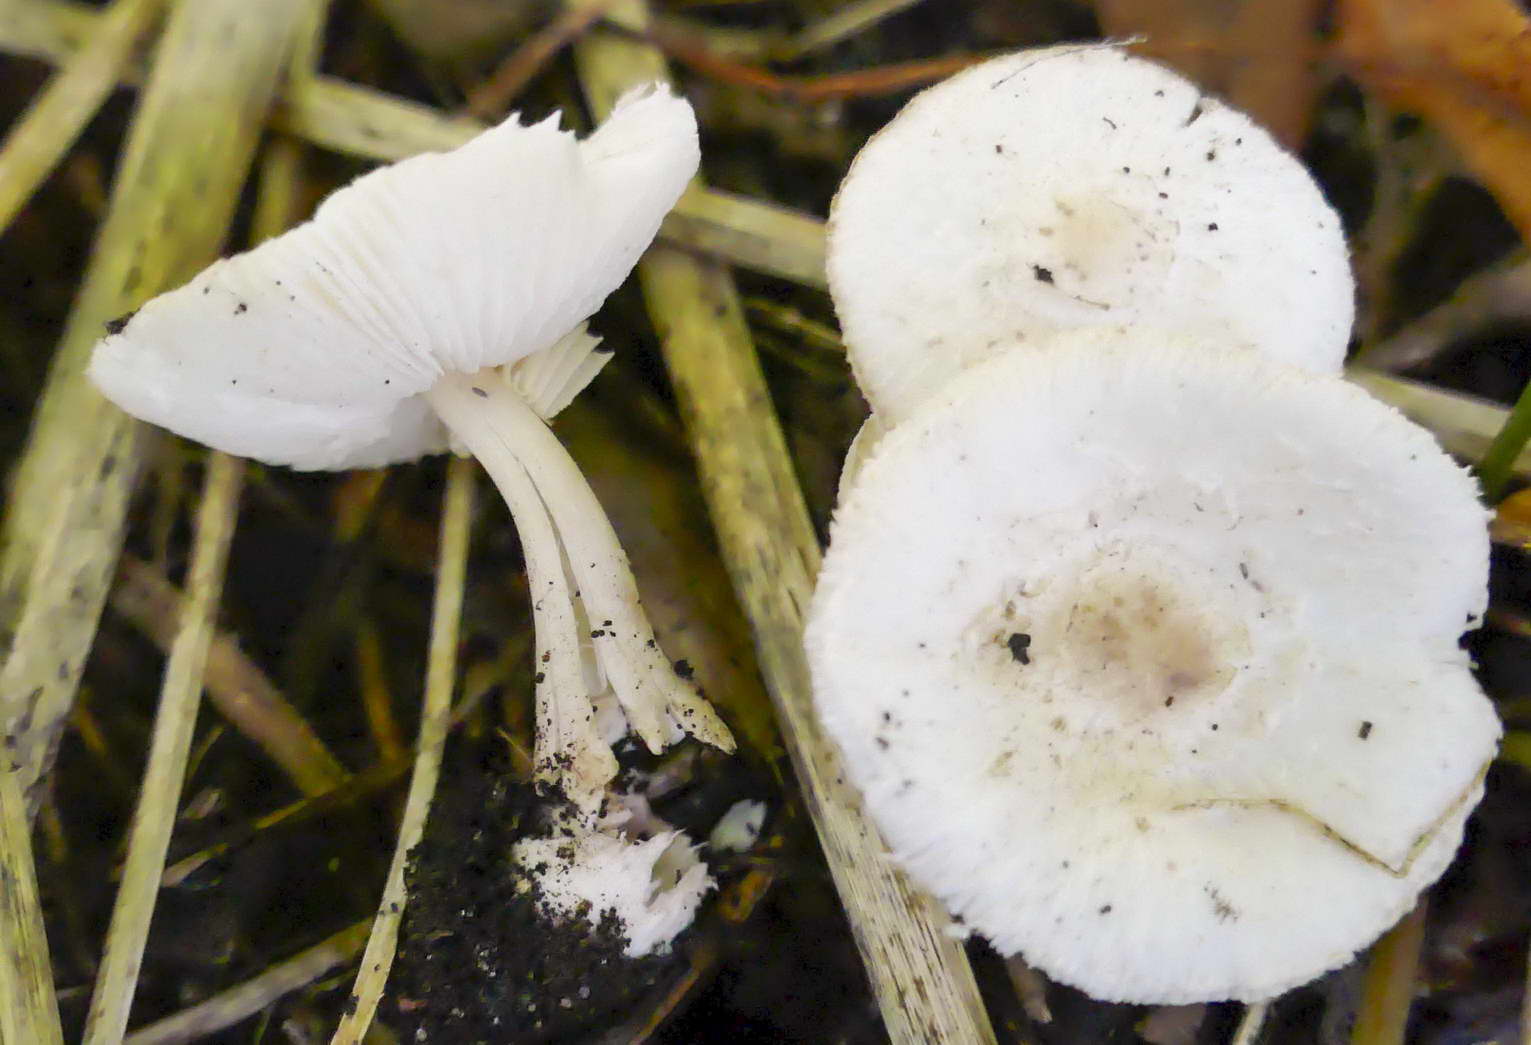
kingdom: Fungi
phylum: Basidiomycota
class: Agaricomycetes
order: Agaricales
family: Agaricaceae
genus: Leucoagaricus
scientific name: Leucoagaricus sericifer
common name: hvid silkehat
